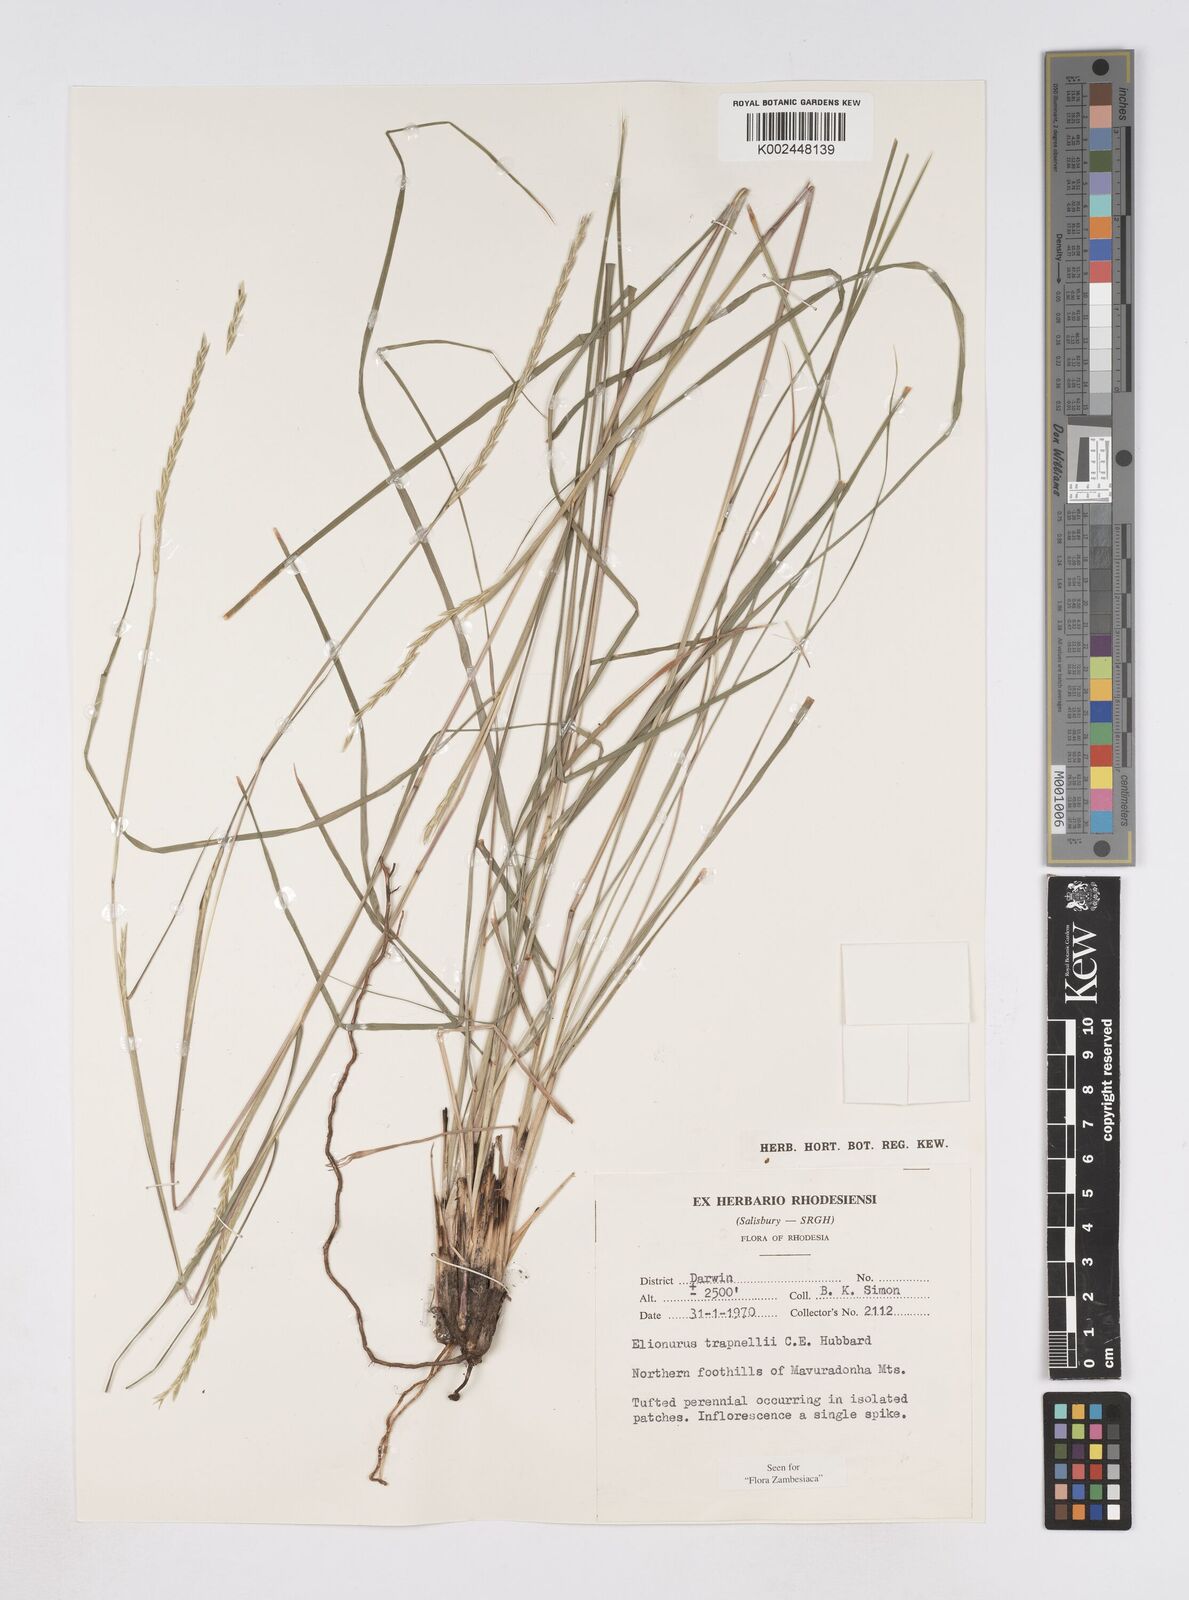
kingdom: Plantae
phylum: Tracheophyta
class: Liliopsida
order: Poales
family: Poaceae
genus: Elionurus
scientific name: Elionurus tripsacoides
